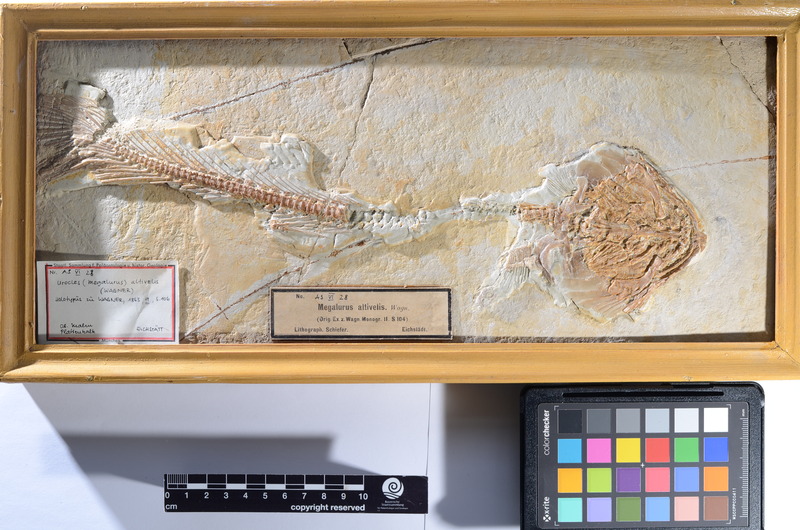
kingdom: Animalia
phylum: Chordata
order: Amiiformes
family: Amiidae
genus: Solnhofenamia
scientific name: Solnhofenamia elongata
